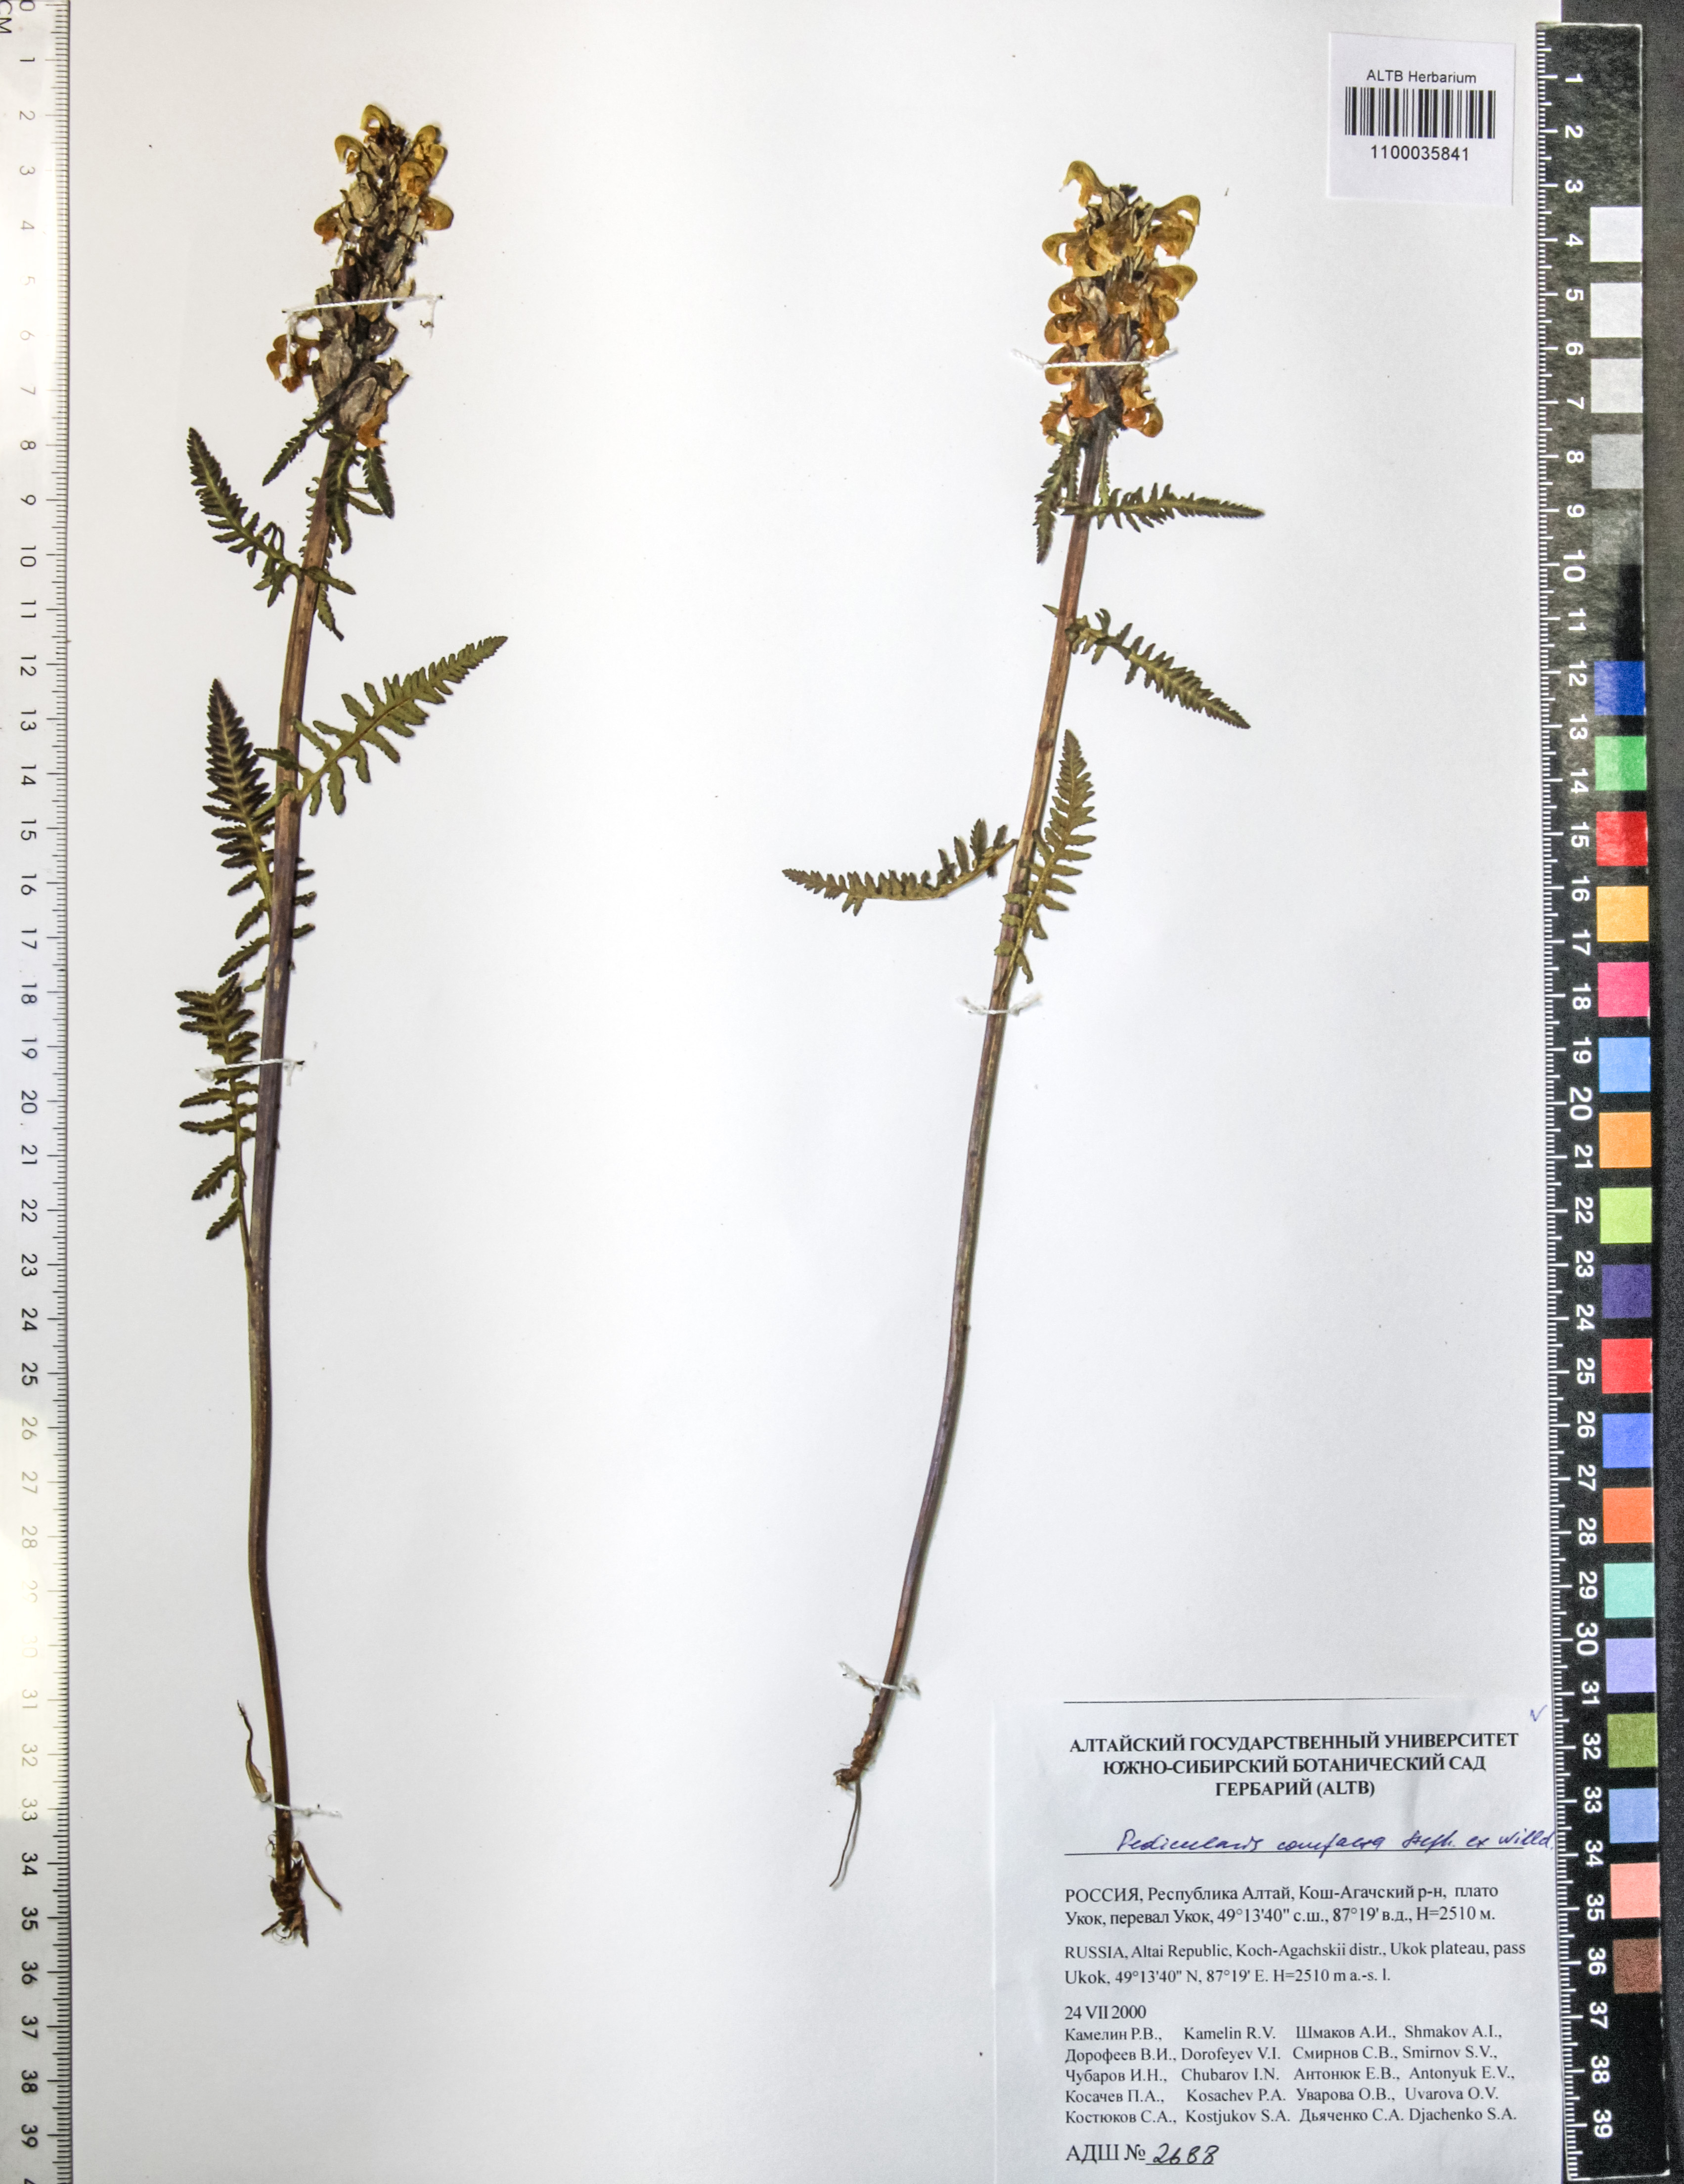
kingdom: Plantae
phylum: Tracheophyta
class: Magnoliopsida
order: Lamiales
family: Orobanchaceae
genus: Pedicularis
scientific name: Pedicularis compacta
